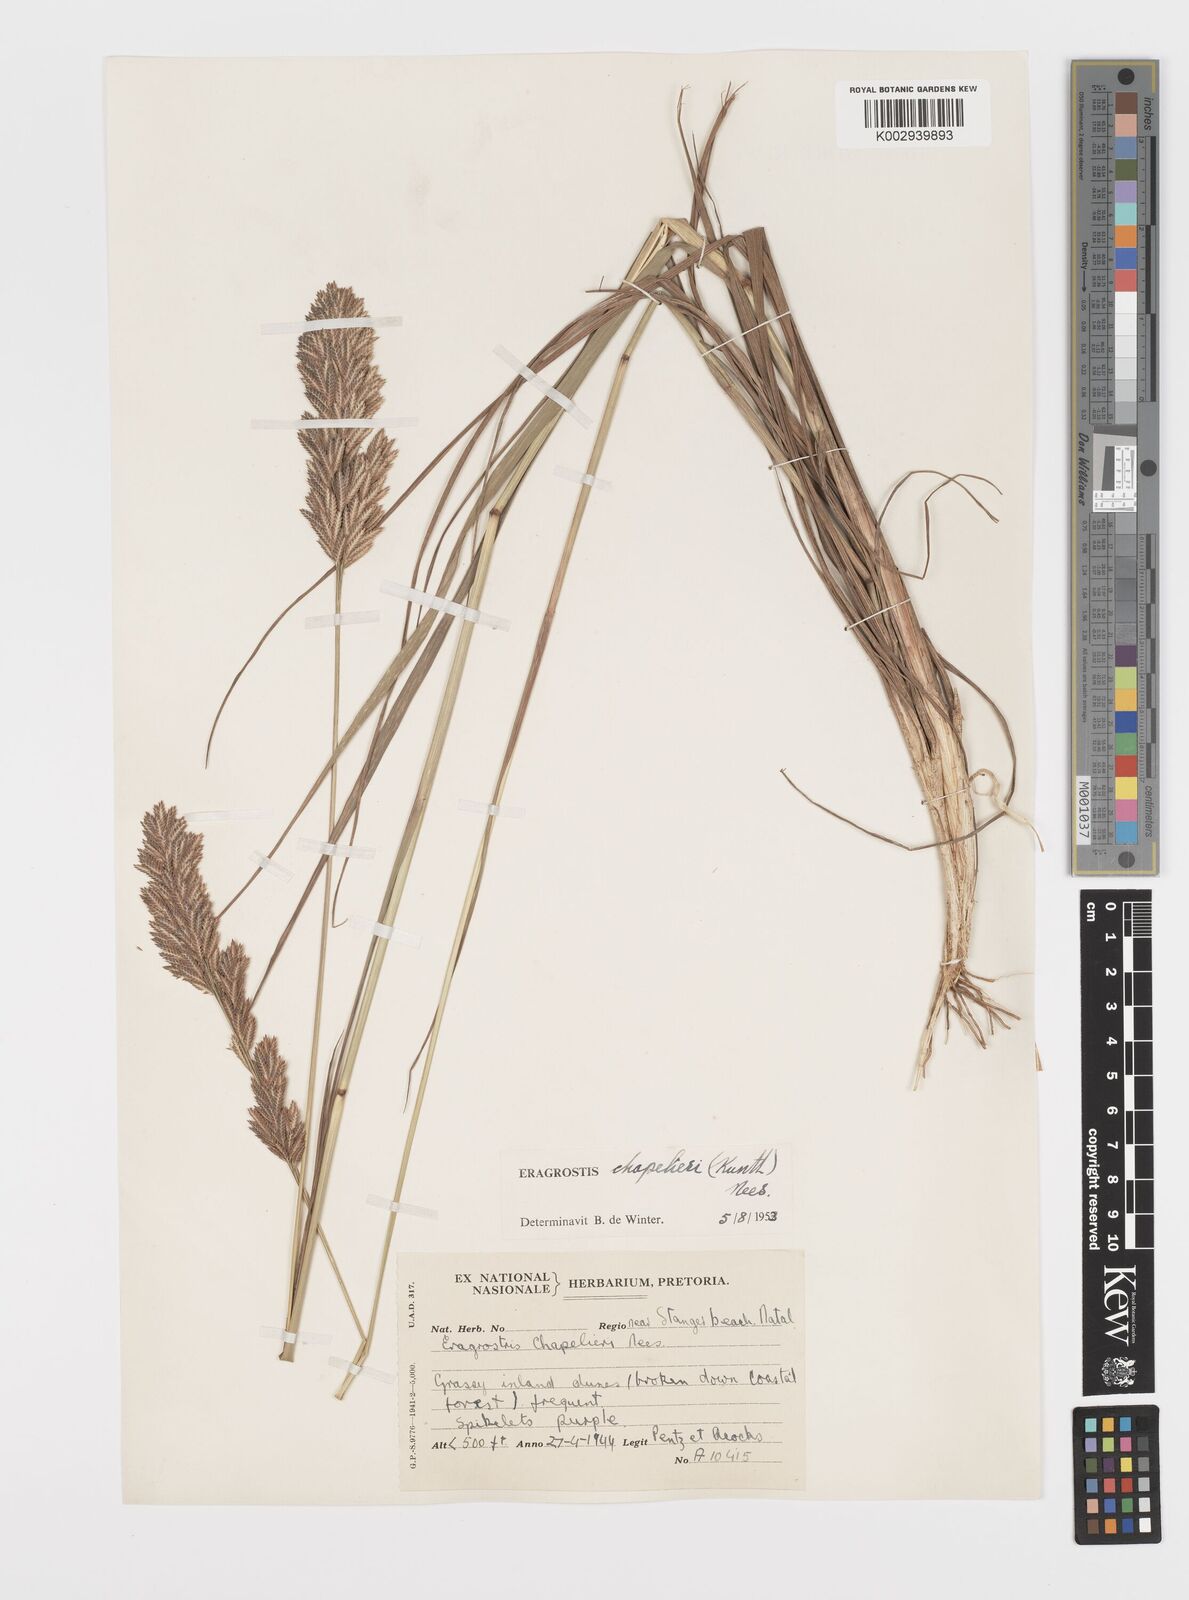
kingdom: Plantae
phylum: Tracheophyta
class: Liliopsida
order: Poales
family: Poaceae
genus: Eragrostis
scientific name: Eragrostis chapelieri
